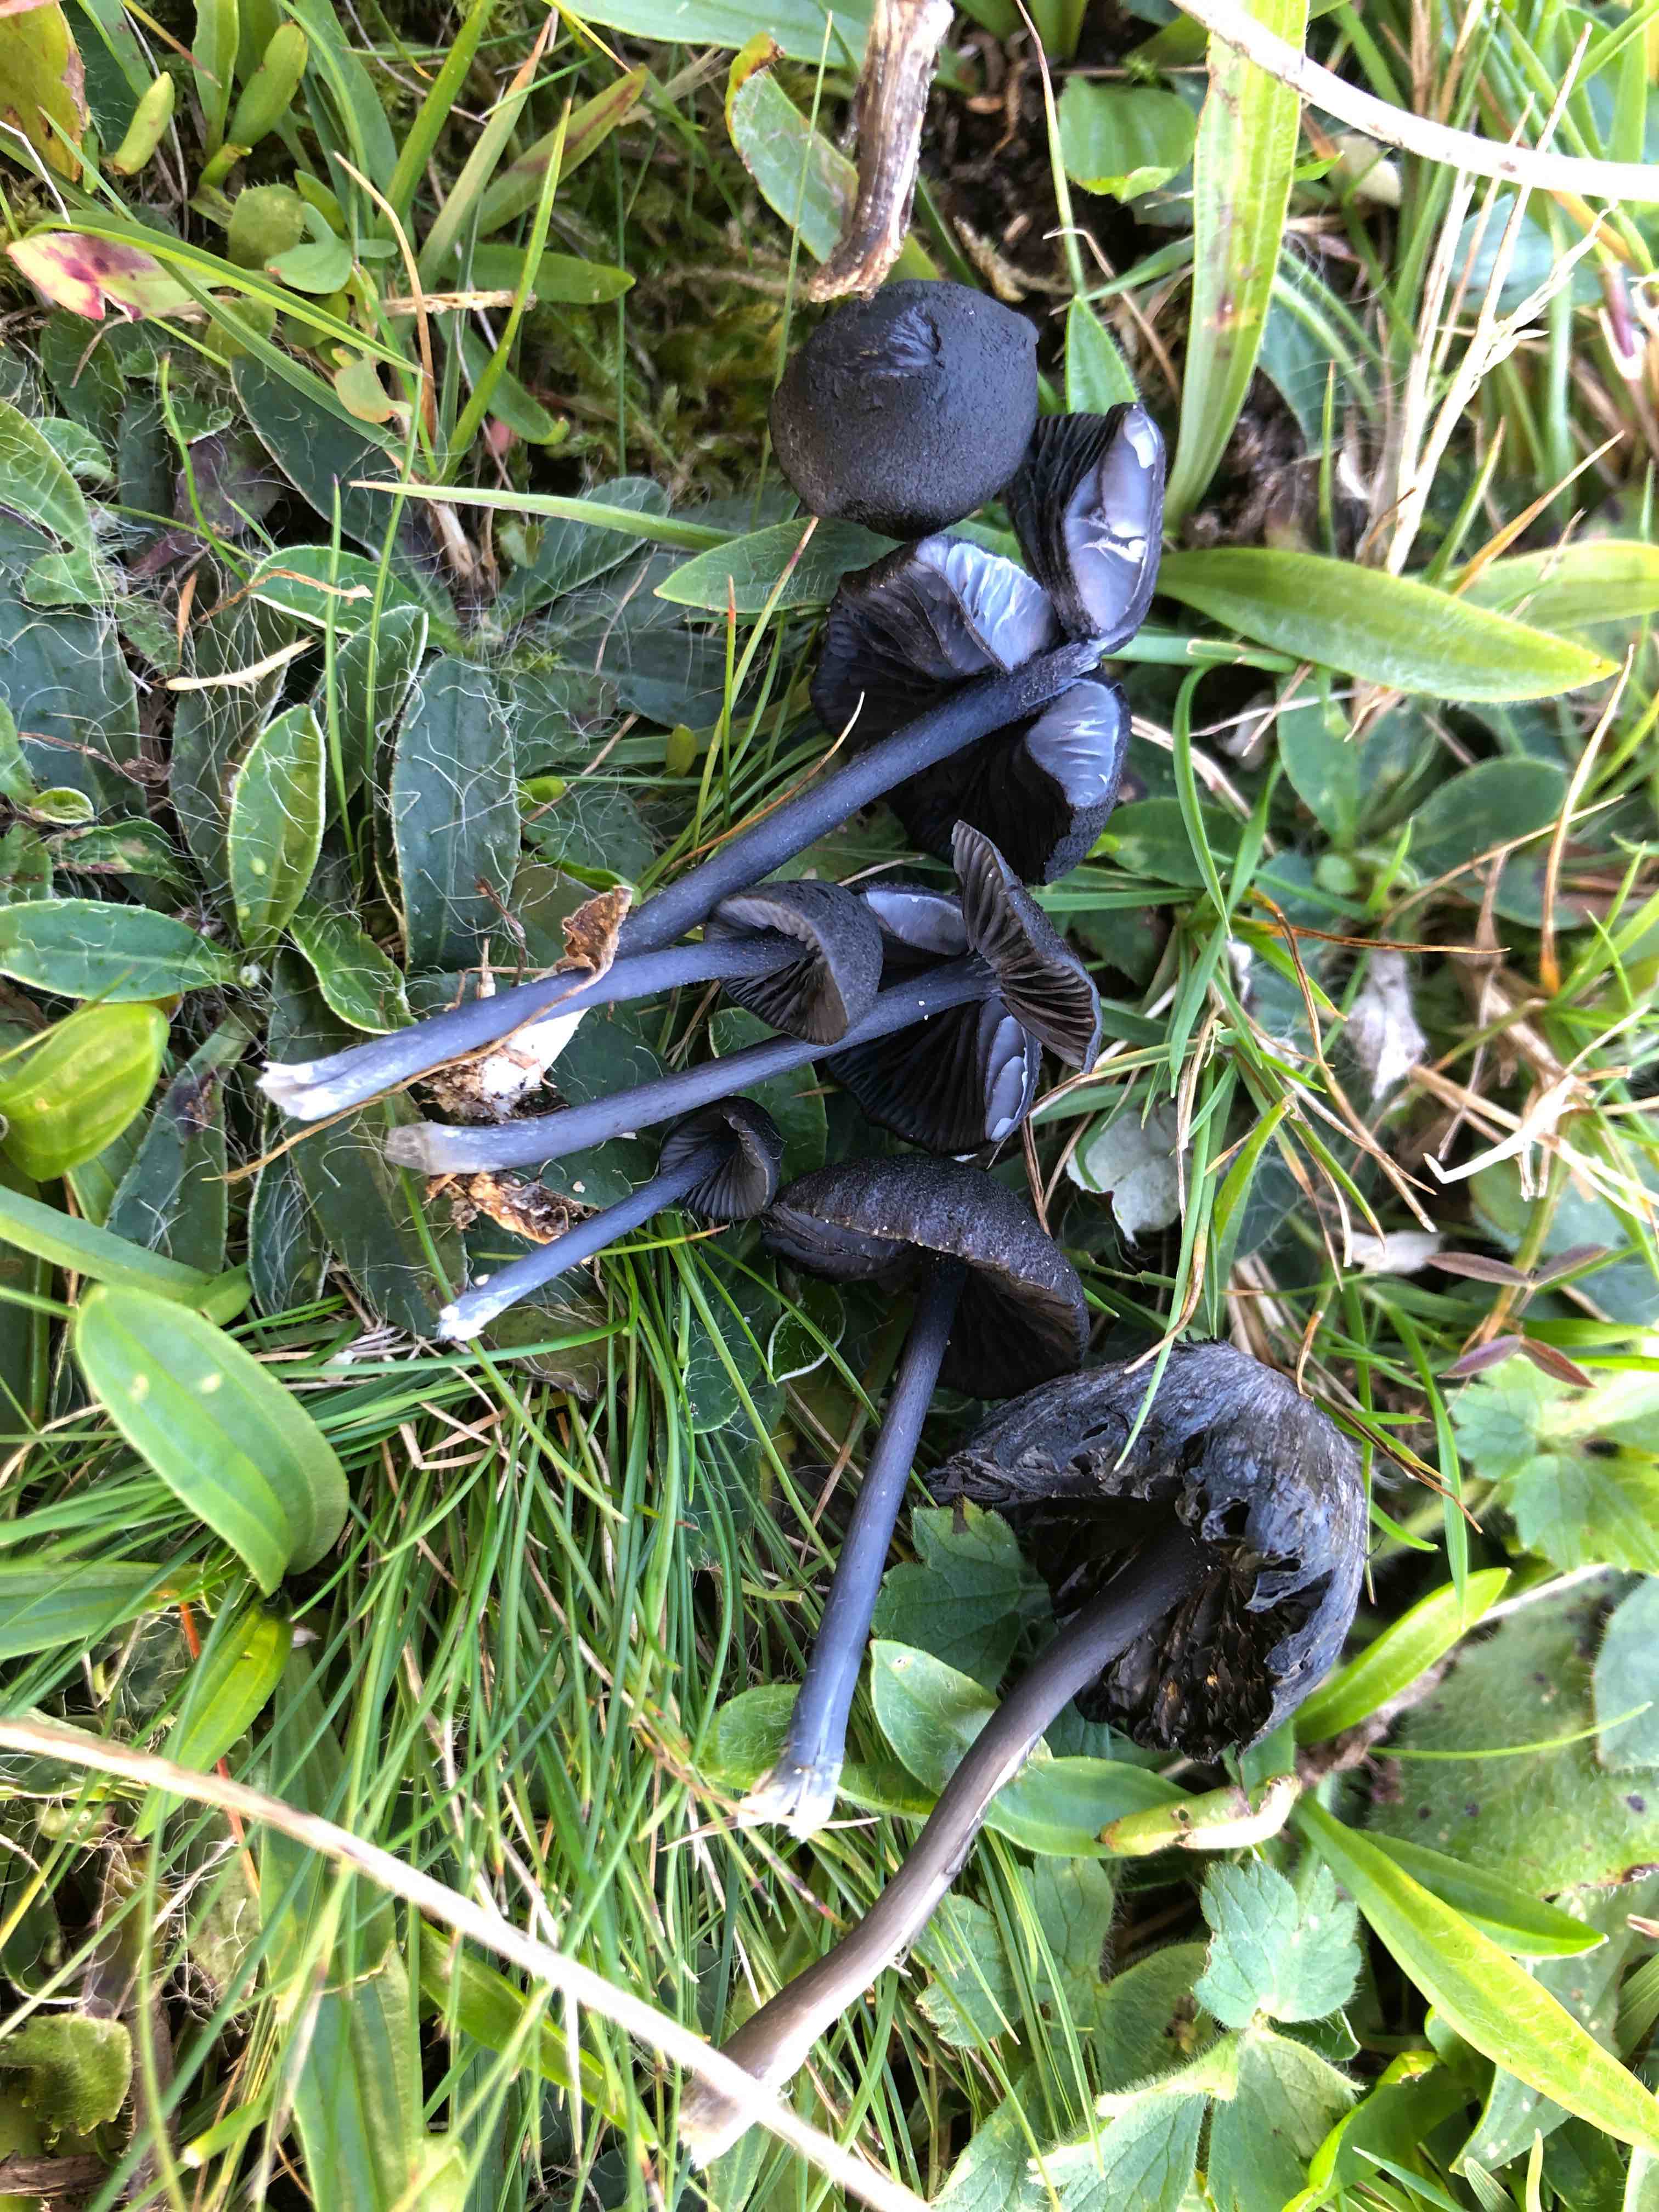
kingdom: Fungi
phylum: Basidiomycota
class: Agaricomycetes
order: Agaricales
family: Entolomataceae
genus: Entoloma
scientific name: Entoloma serrulatum
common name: savbladet rødblad
